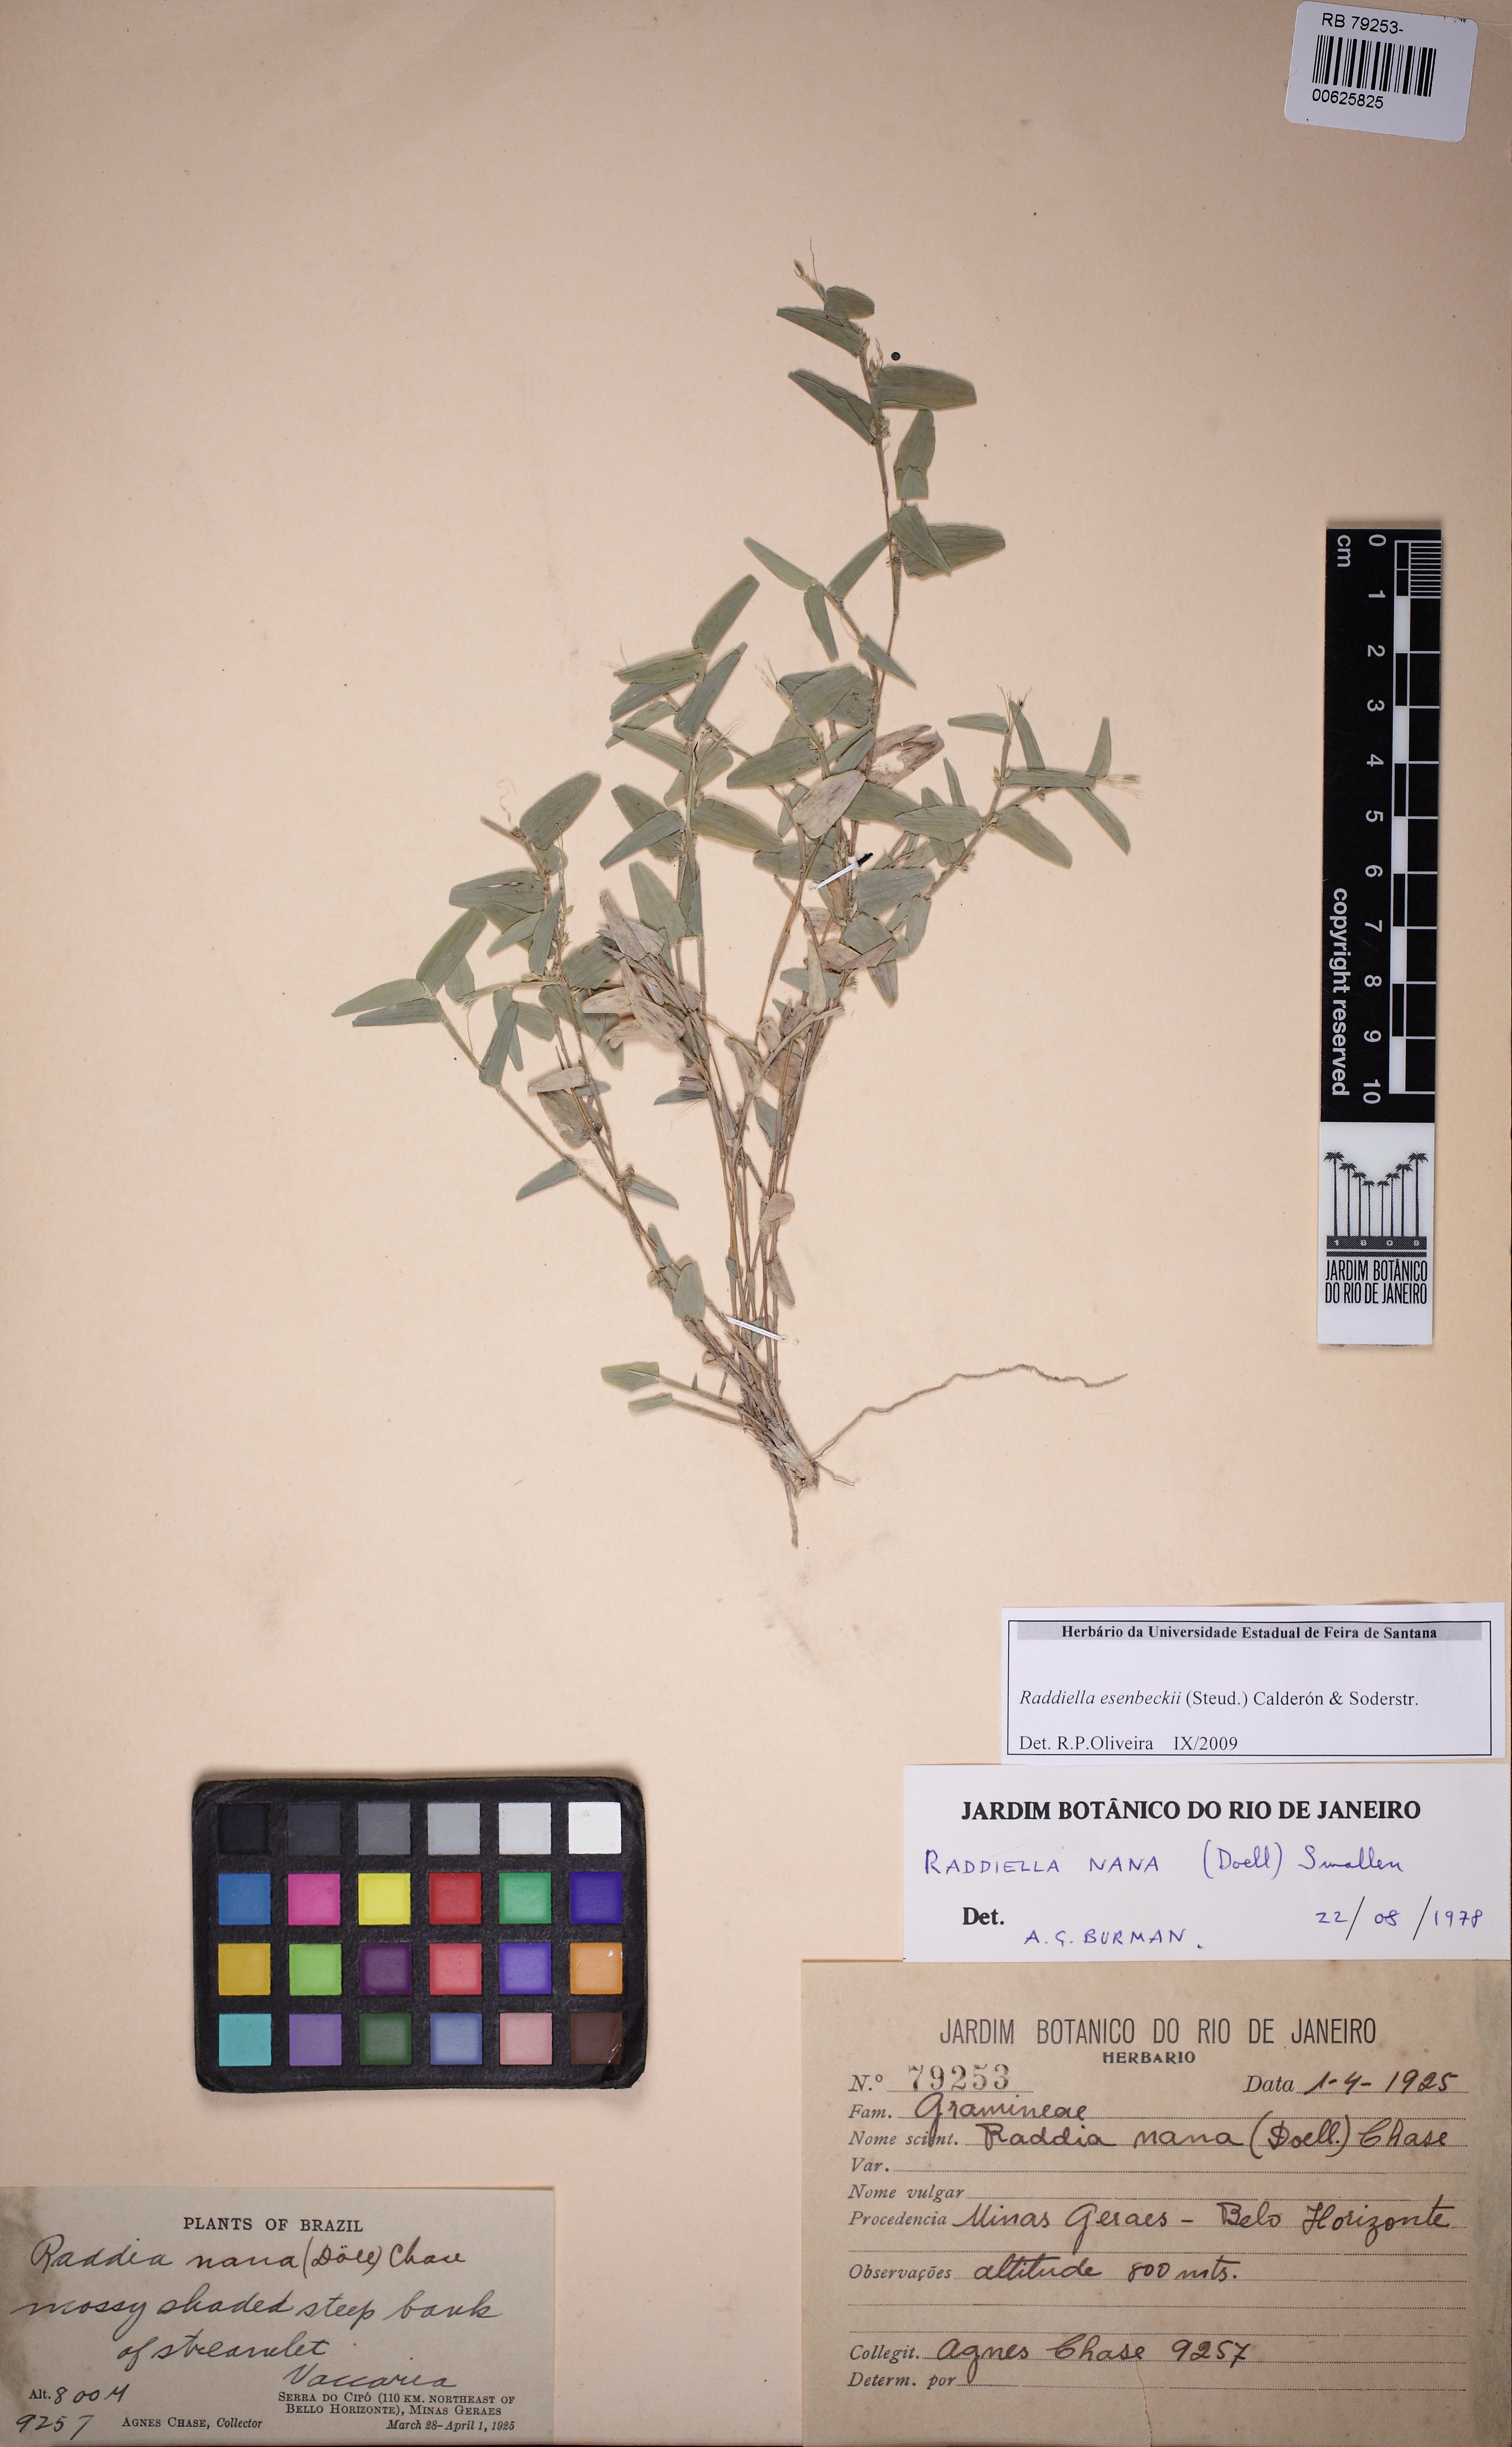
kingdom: Plantae
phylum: Tracheophyta
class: Liliopsida
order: Poales
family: Poaceae
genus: Raddiella
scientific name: Raddiella esenbeckii
